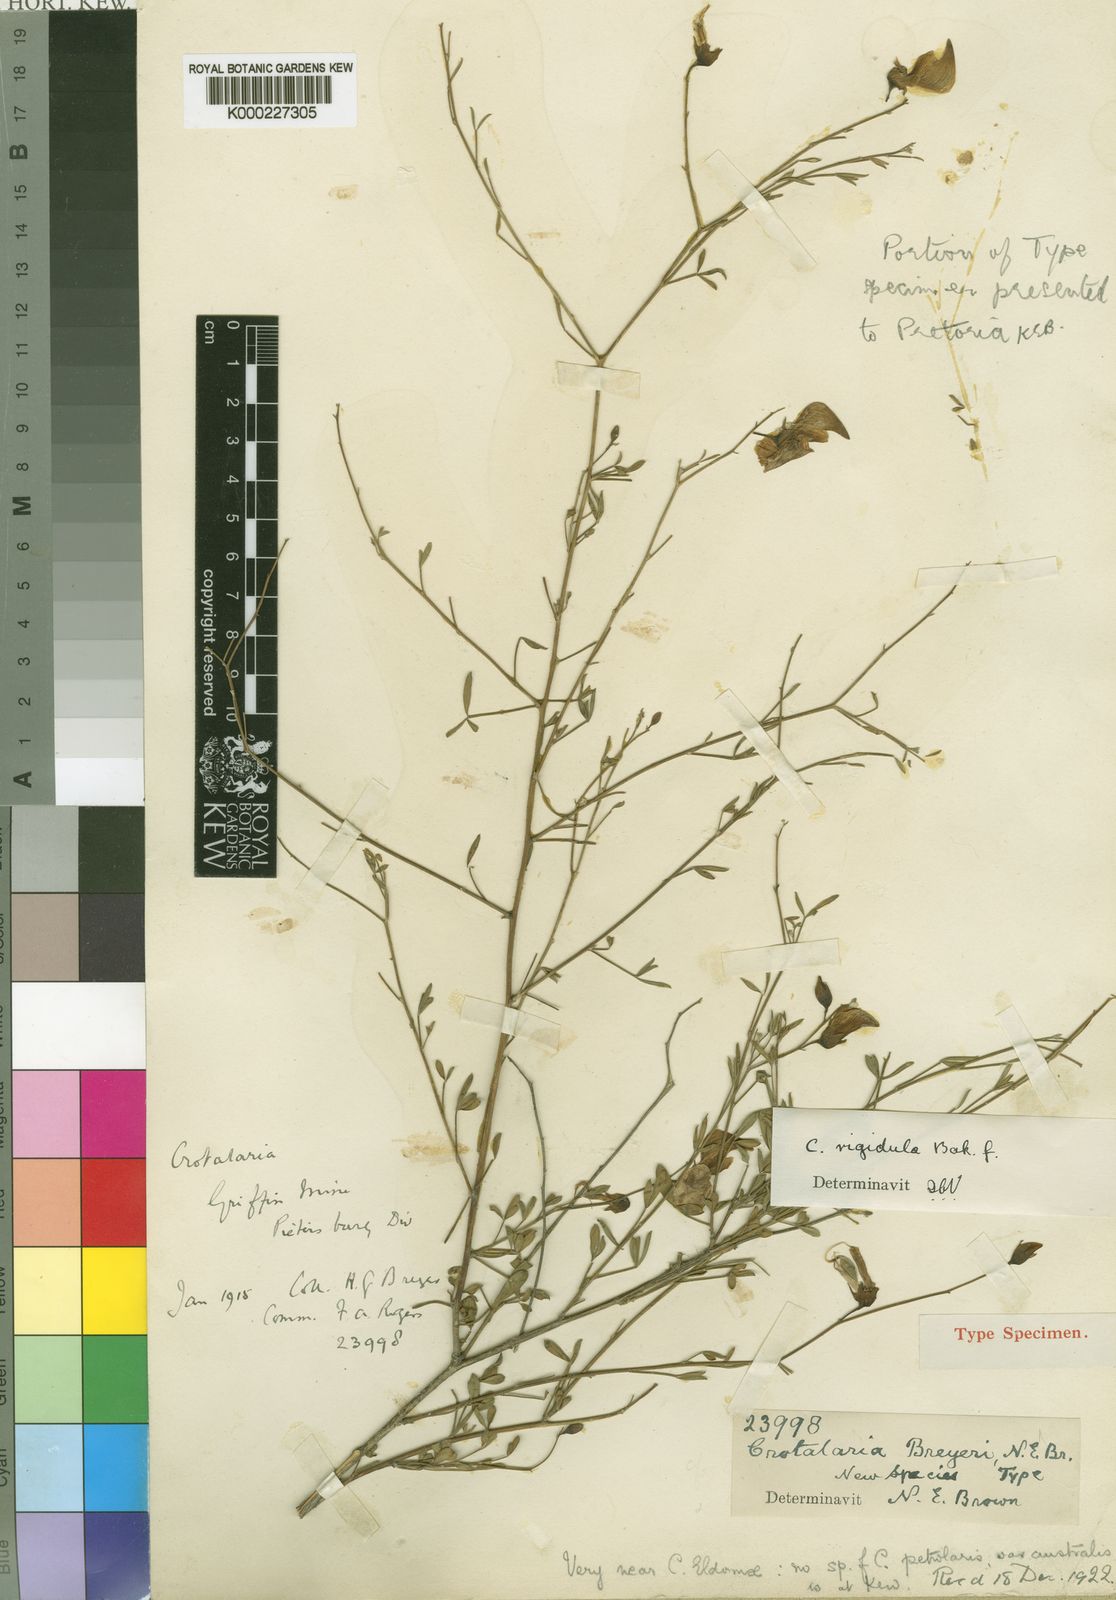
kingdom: Plantae
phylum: Tracheophyta
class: Magnoliopsida
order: Fabales
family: Fabaceae
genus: Crotalaria
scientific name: Crotalaria monteiroi
